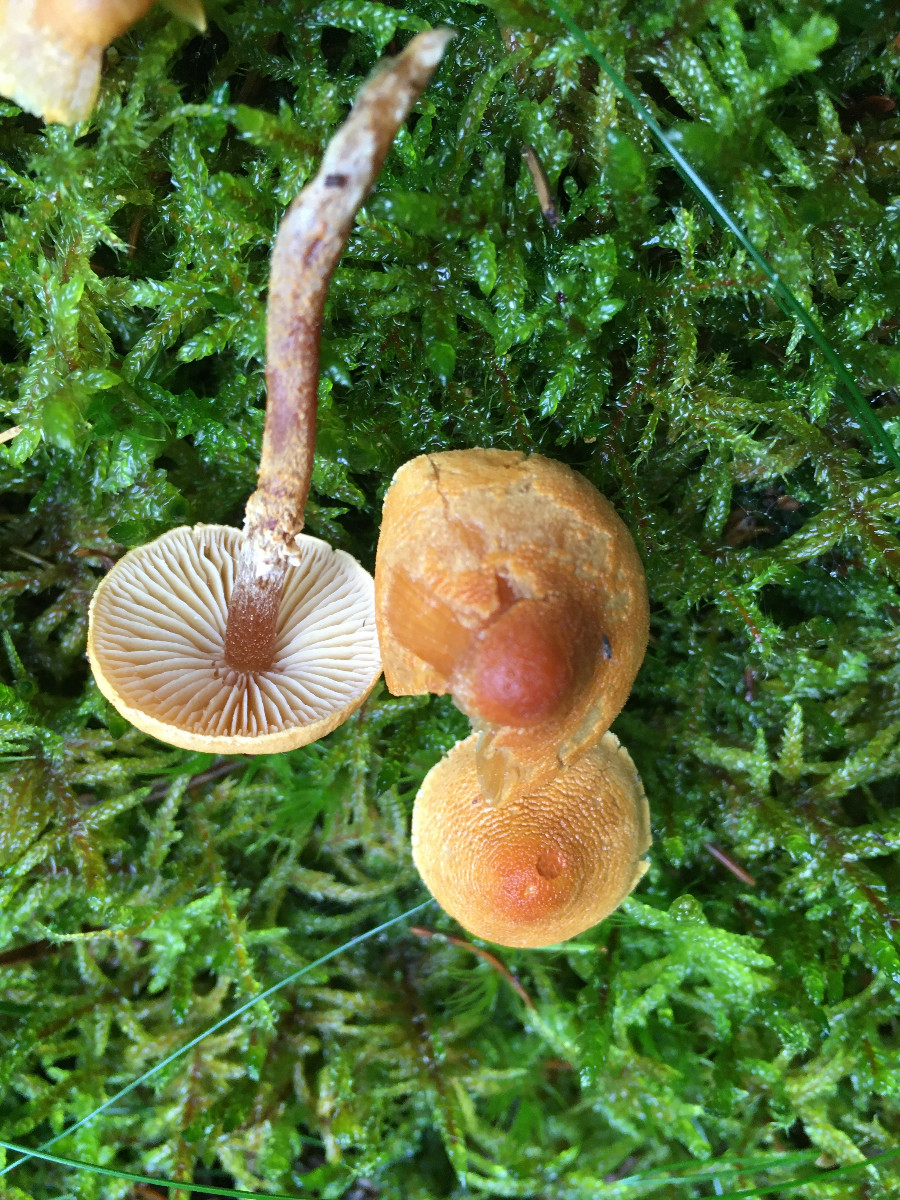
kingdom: Fungi
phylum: Basidiomycota
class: Agaricomycetes
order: Agaricales
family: Tricholomataceae
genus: Cystoderma
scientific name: Cystoderma
